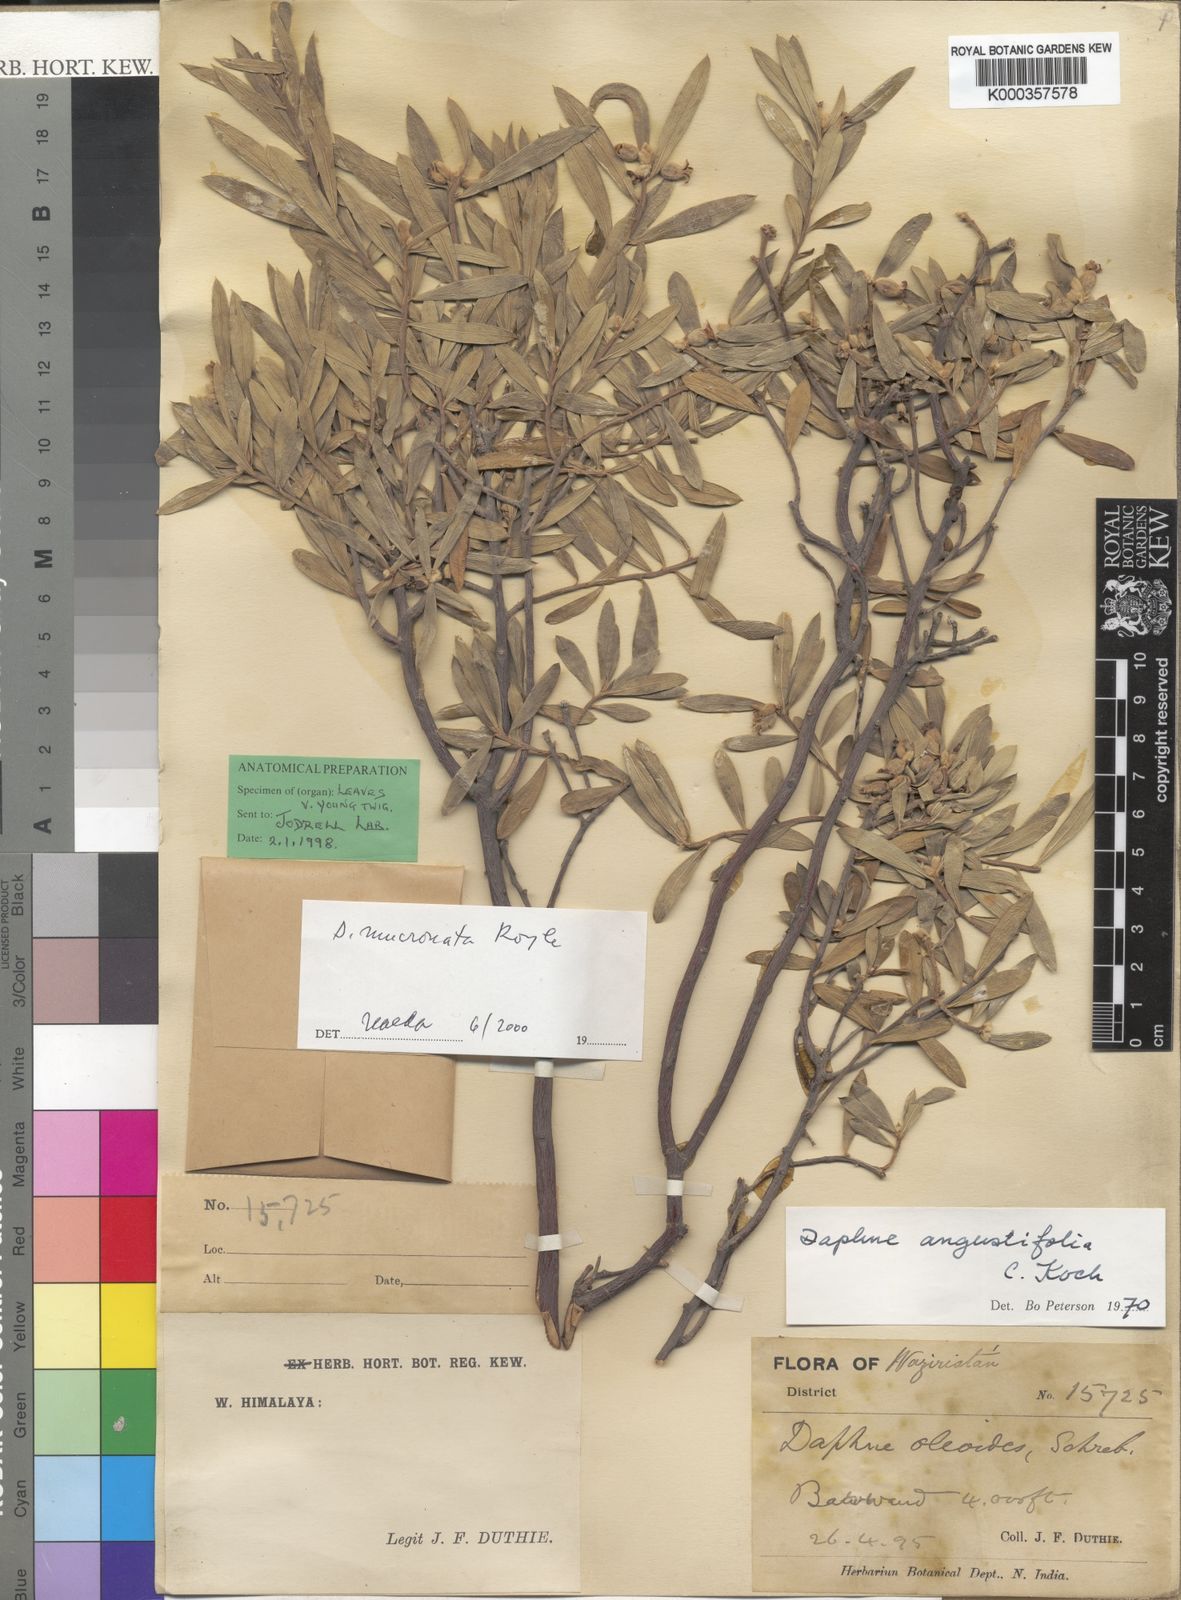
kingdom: Plantae
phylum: Tracheophyta
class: Magnoliopsida
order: Malvales
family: Thymelaeaceae
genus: Daphne
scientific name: Daphne mucronata
